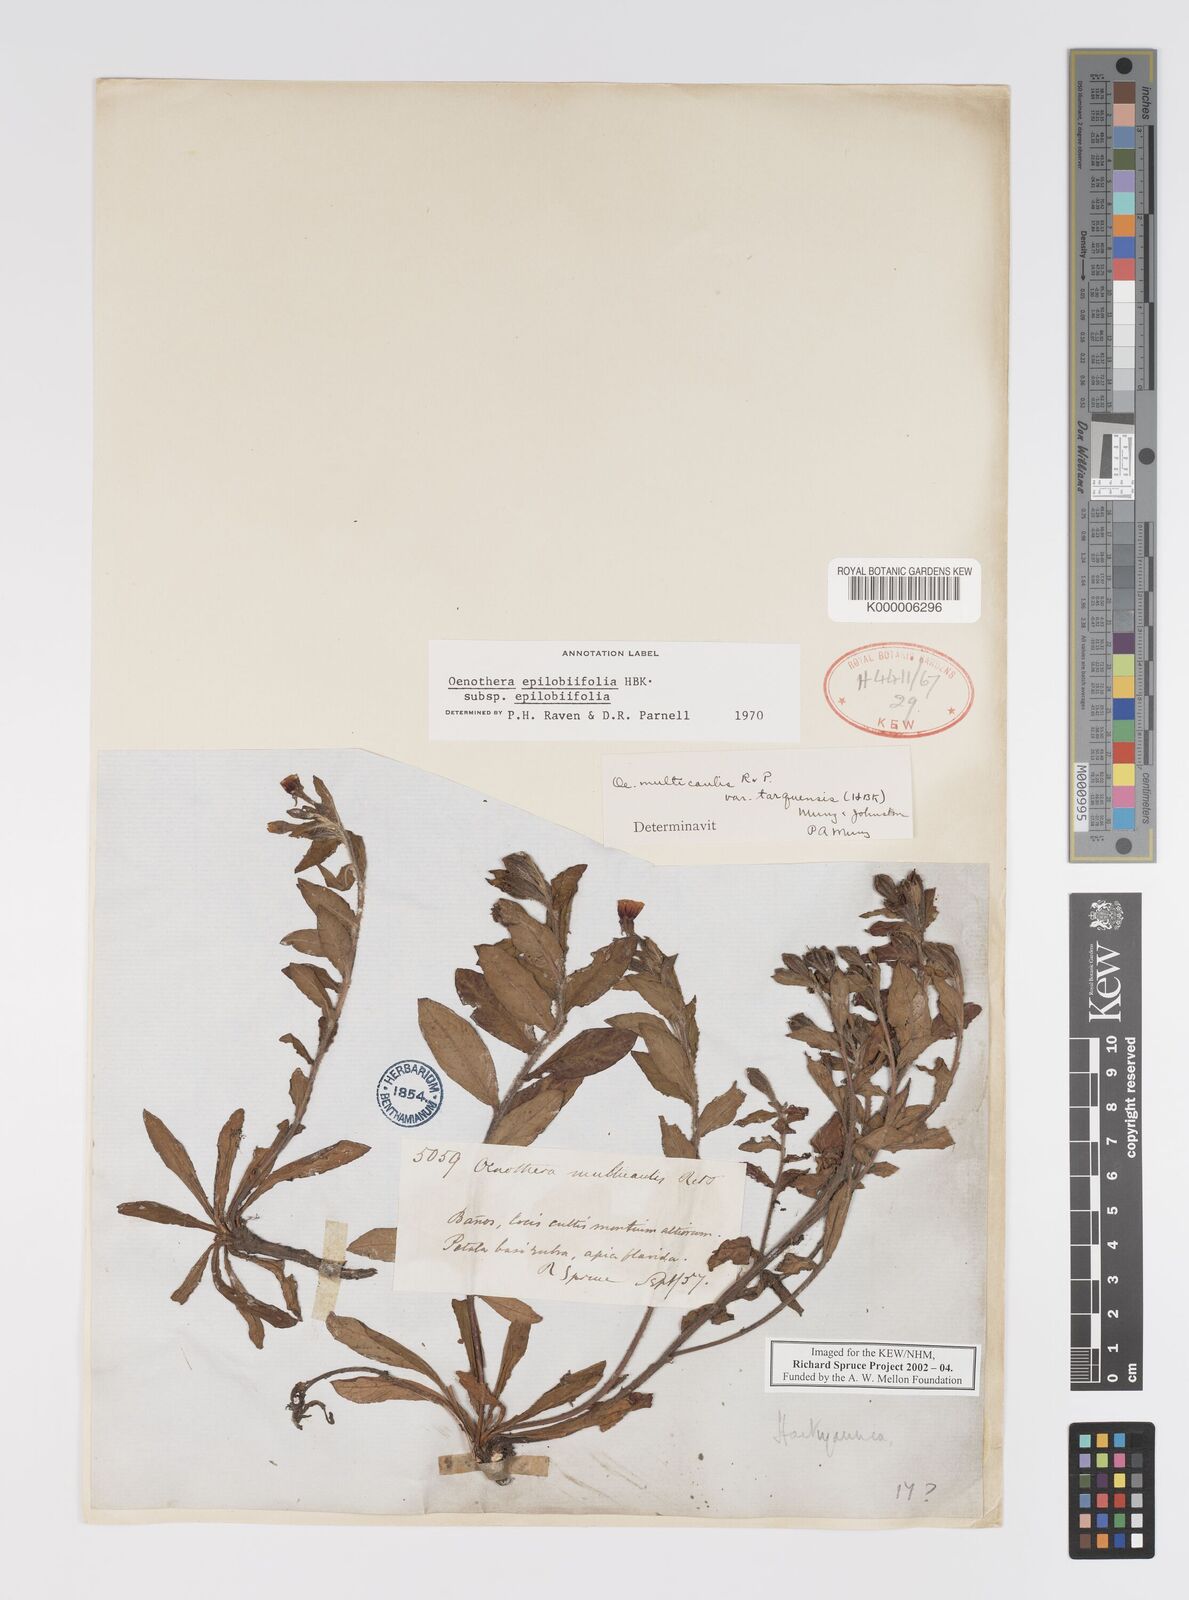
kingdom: Plantae
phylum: Tracheophyta
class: Magnoliopsida
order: Myrtales
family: Onagraceae
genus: Oenothera
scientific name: Oenothera
